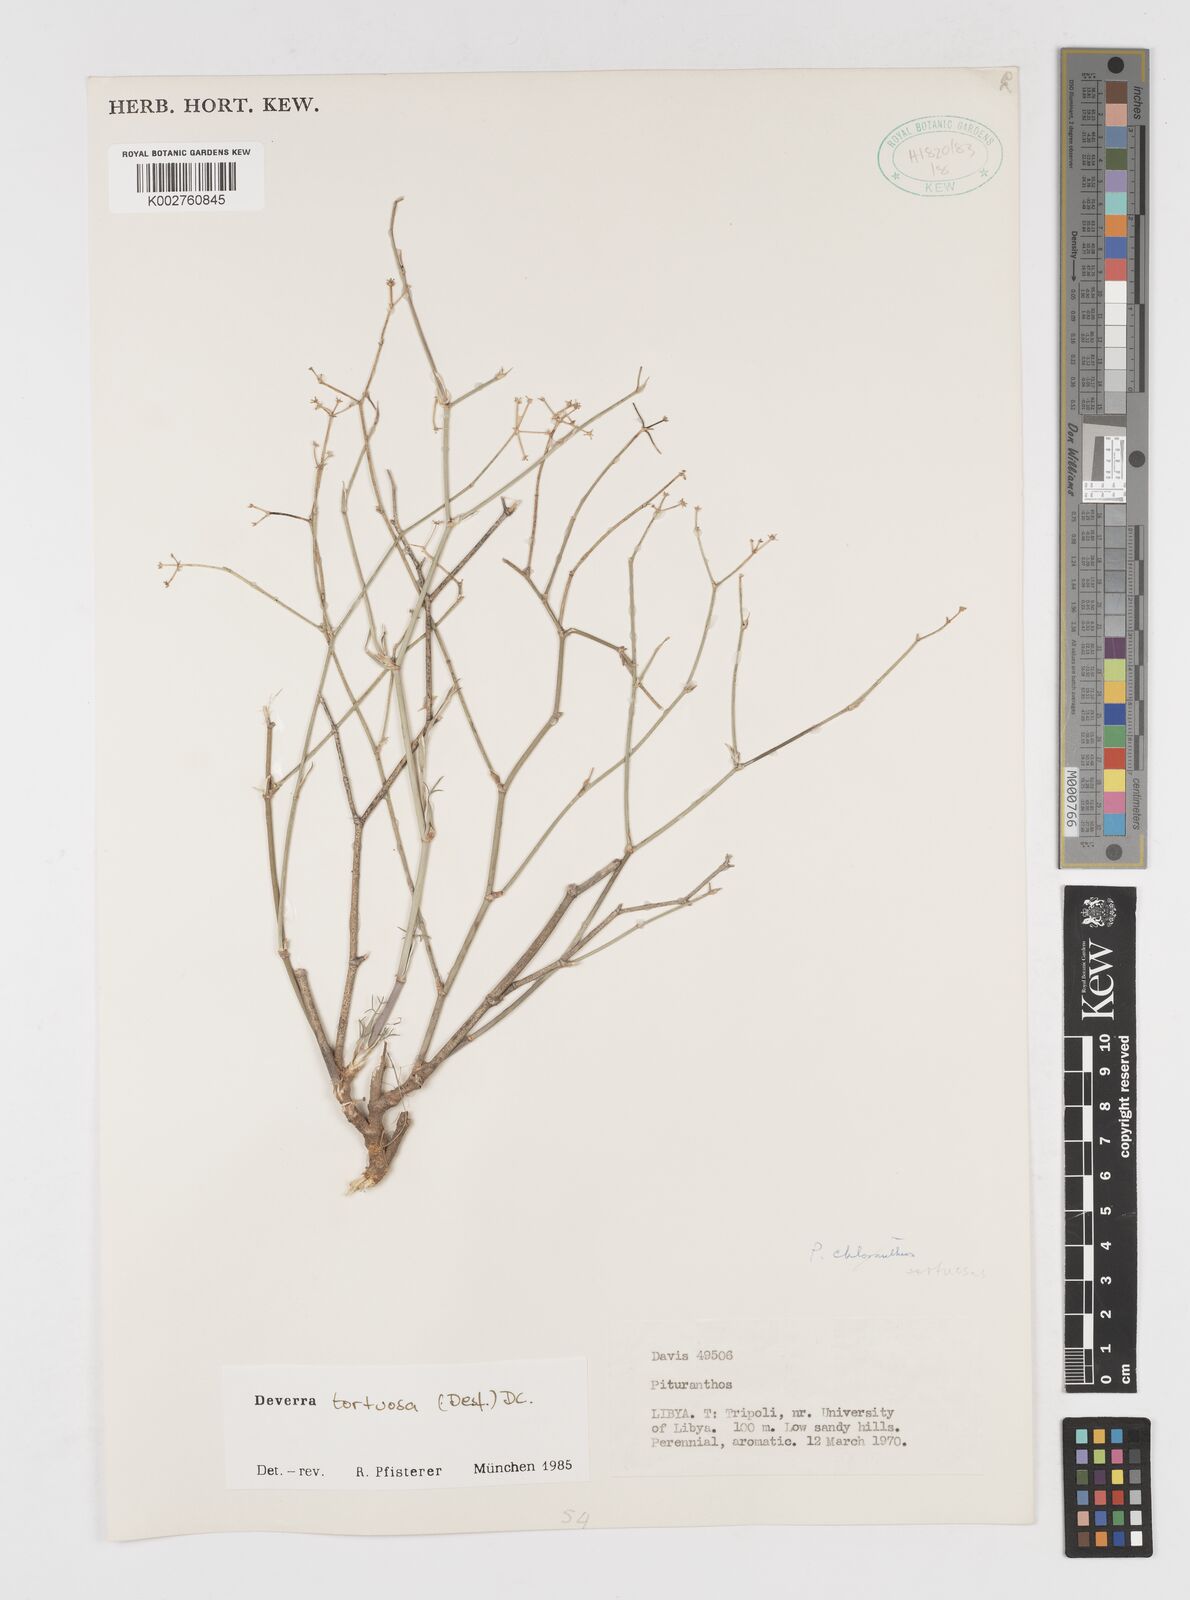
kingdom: Plantae
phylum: Tracheophyta
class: Magnoliopsida
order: Apiales
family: Apiaceae
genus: Deverra
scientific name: Deverra tortuosa
